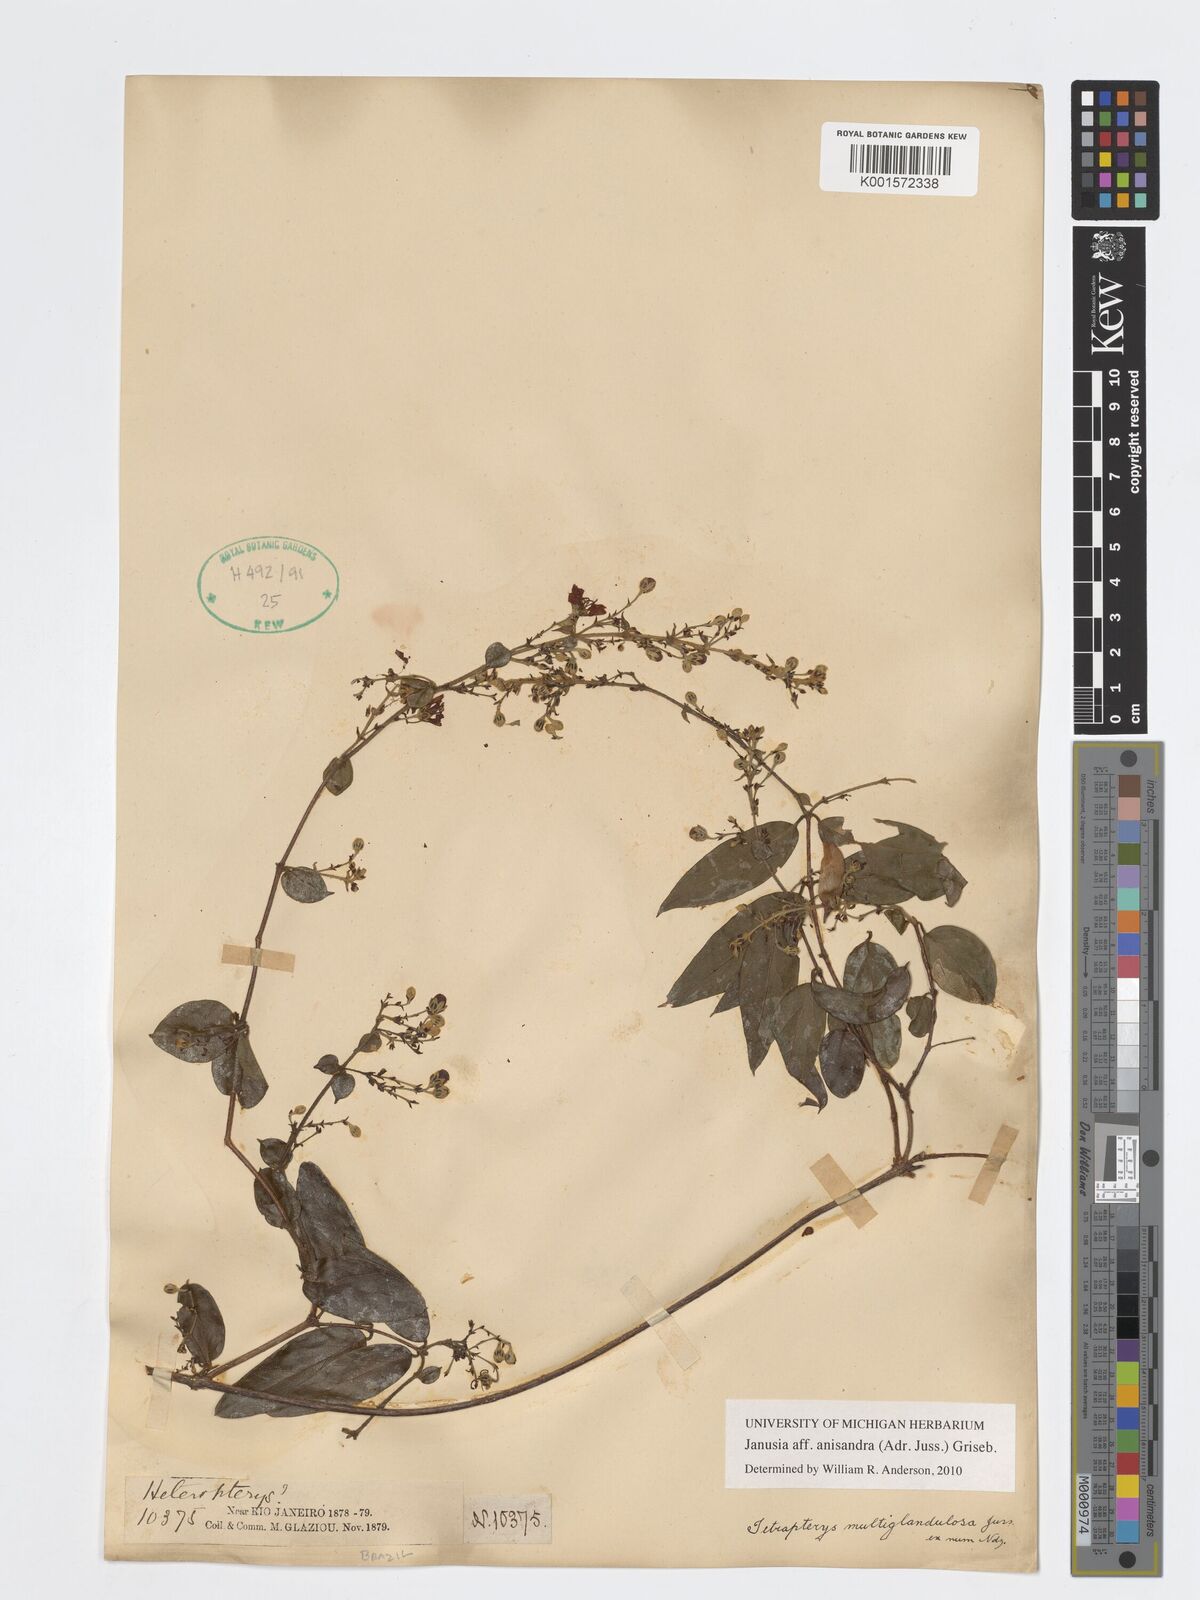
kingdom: Plantae
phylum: Tracheophyta
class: Magnoliopsida
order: Malpighiales
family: Malpighiaceae
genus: Janusia
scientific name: Janusia anisandra
